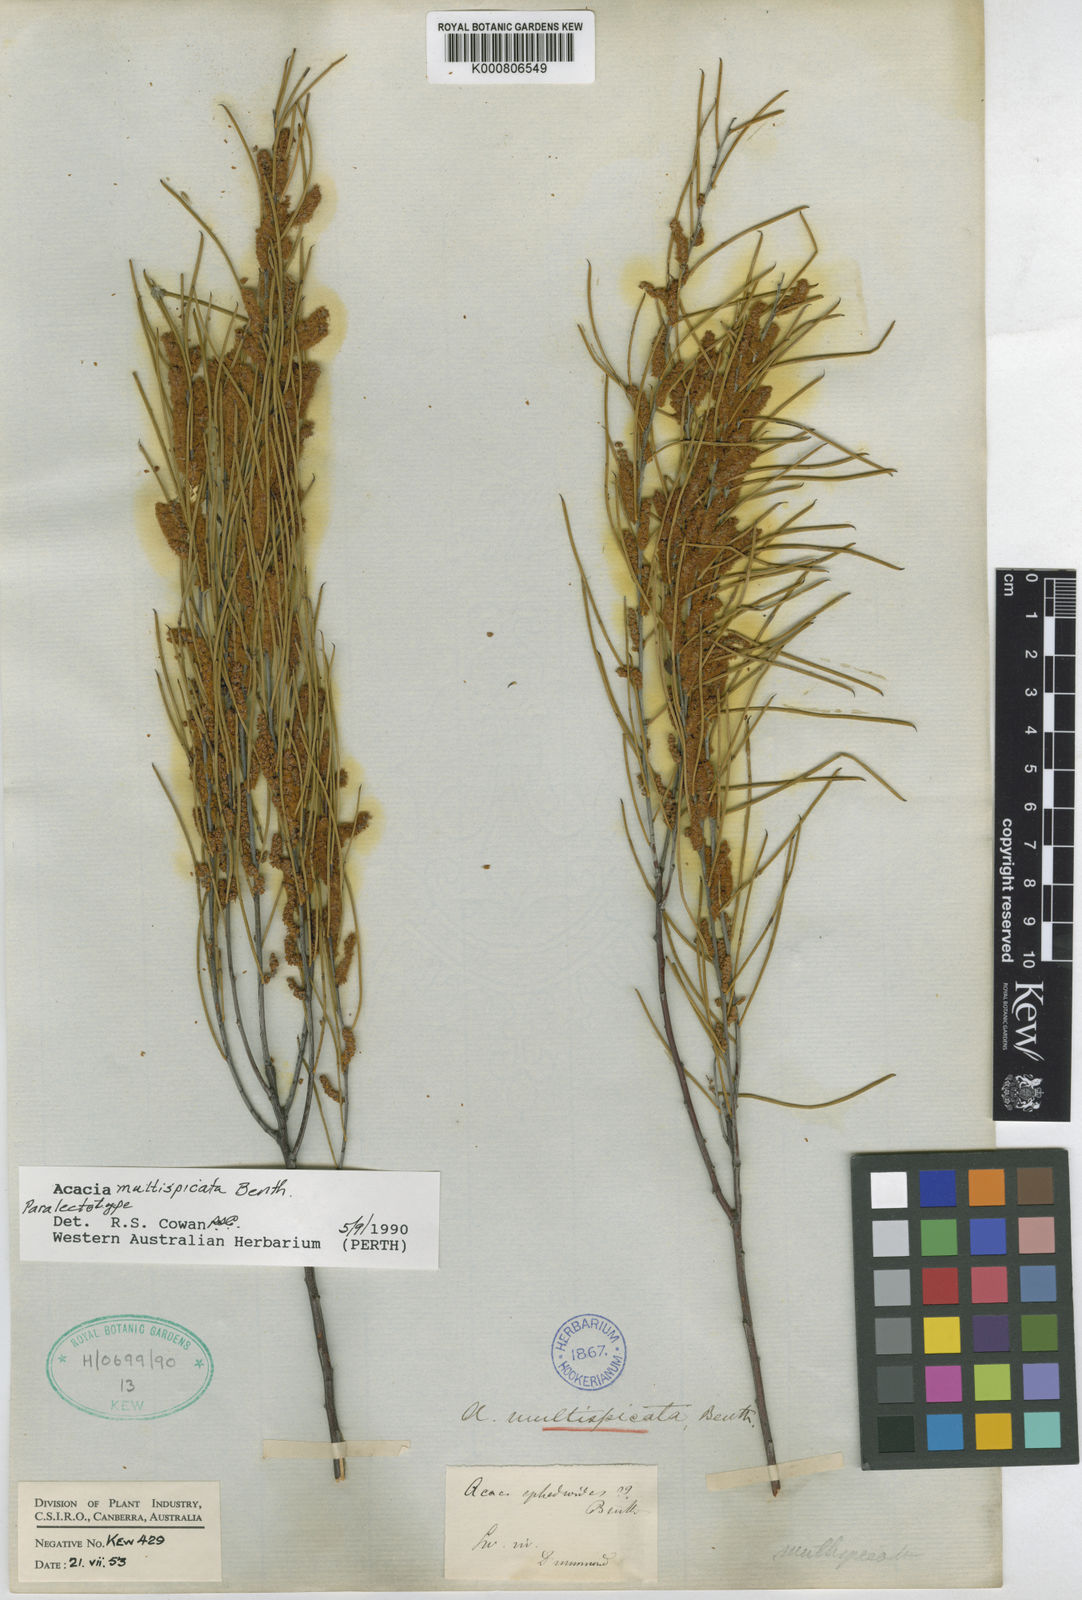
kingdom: Plantae
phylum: Tracheophyta
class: Magnoliopsida
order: Fabales
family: Fabaceae
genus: Acacia
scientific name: Acacia multispicata
